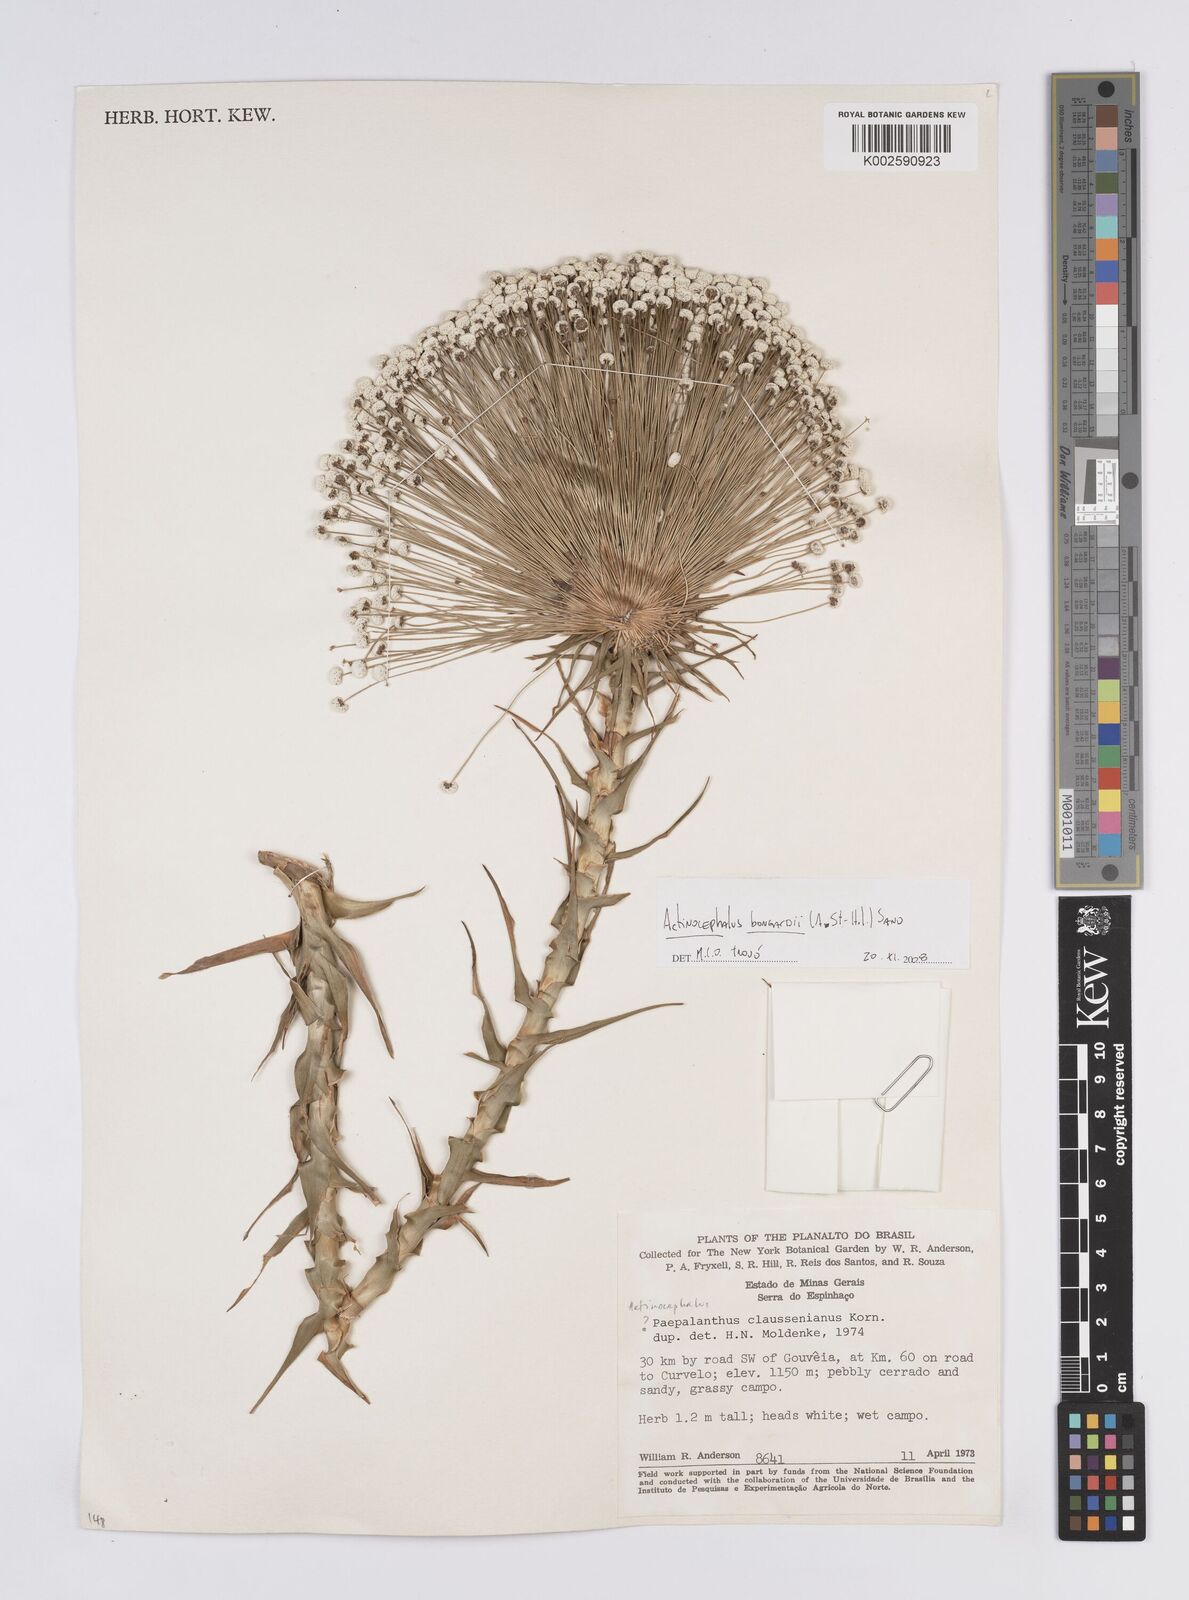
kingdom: Plantae
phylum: Tracheophyta
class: Liliopsida
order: Poales
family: Eriocaulaceae
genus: Paepalanthus
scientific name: Paepalanthus hilairei
